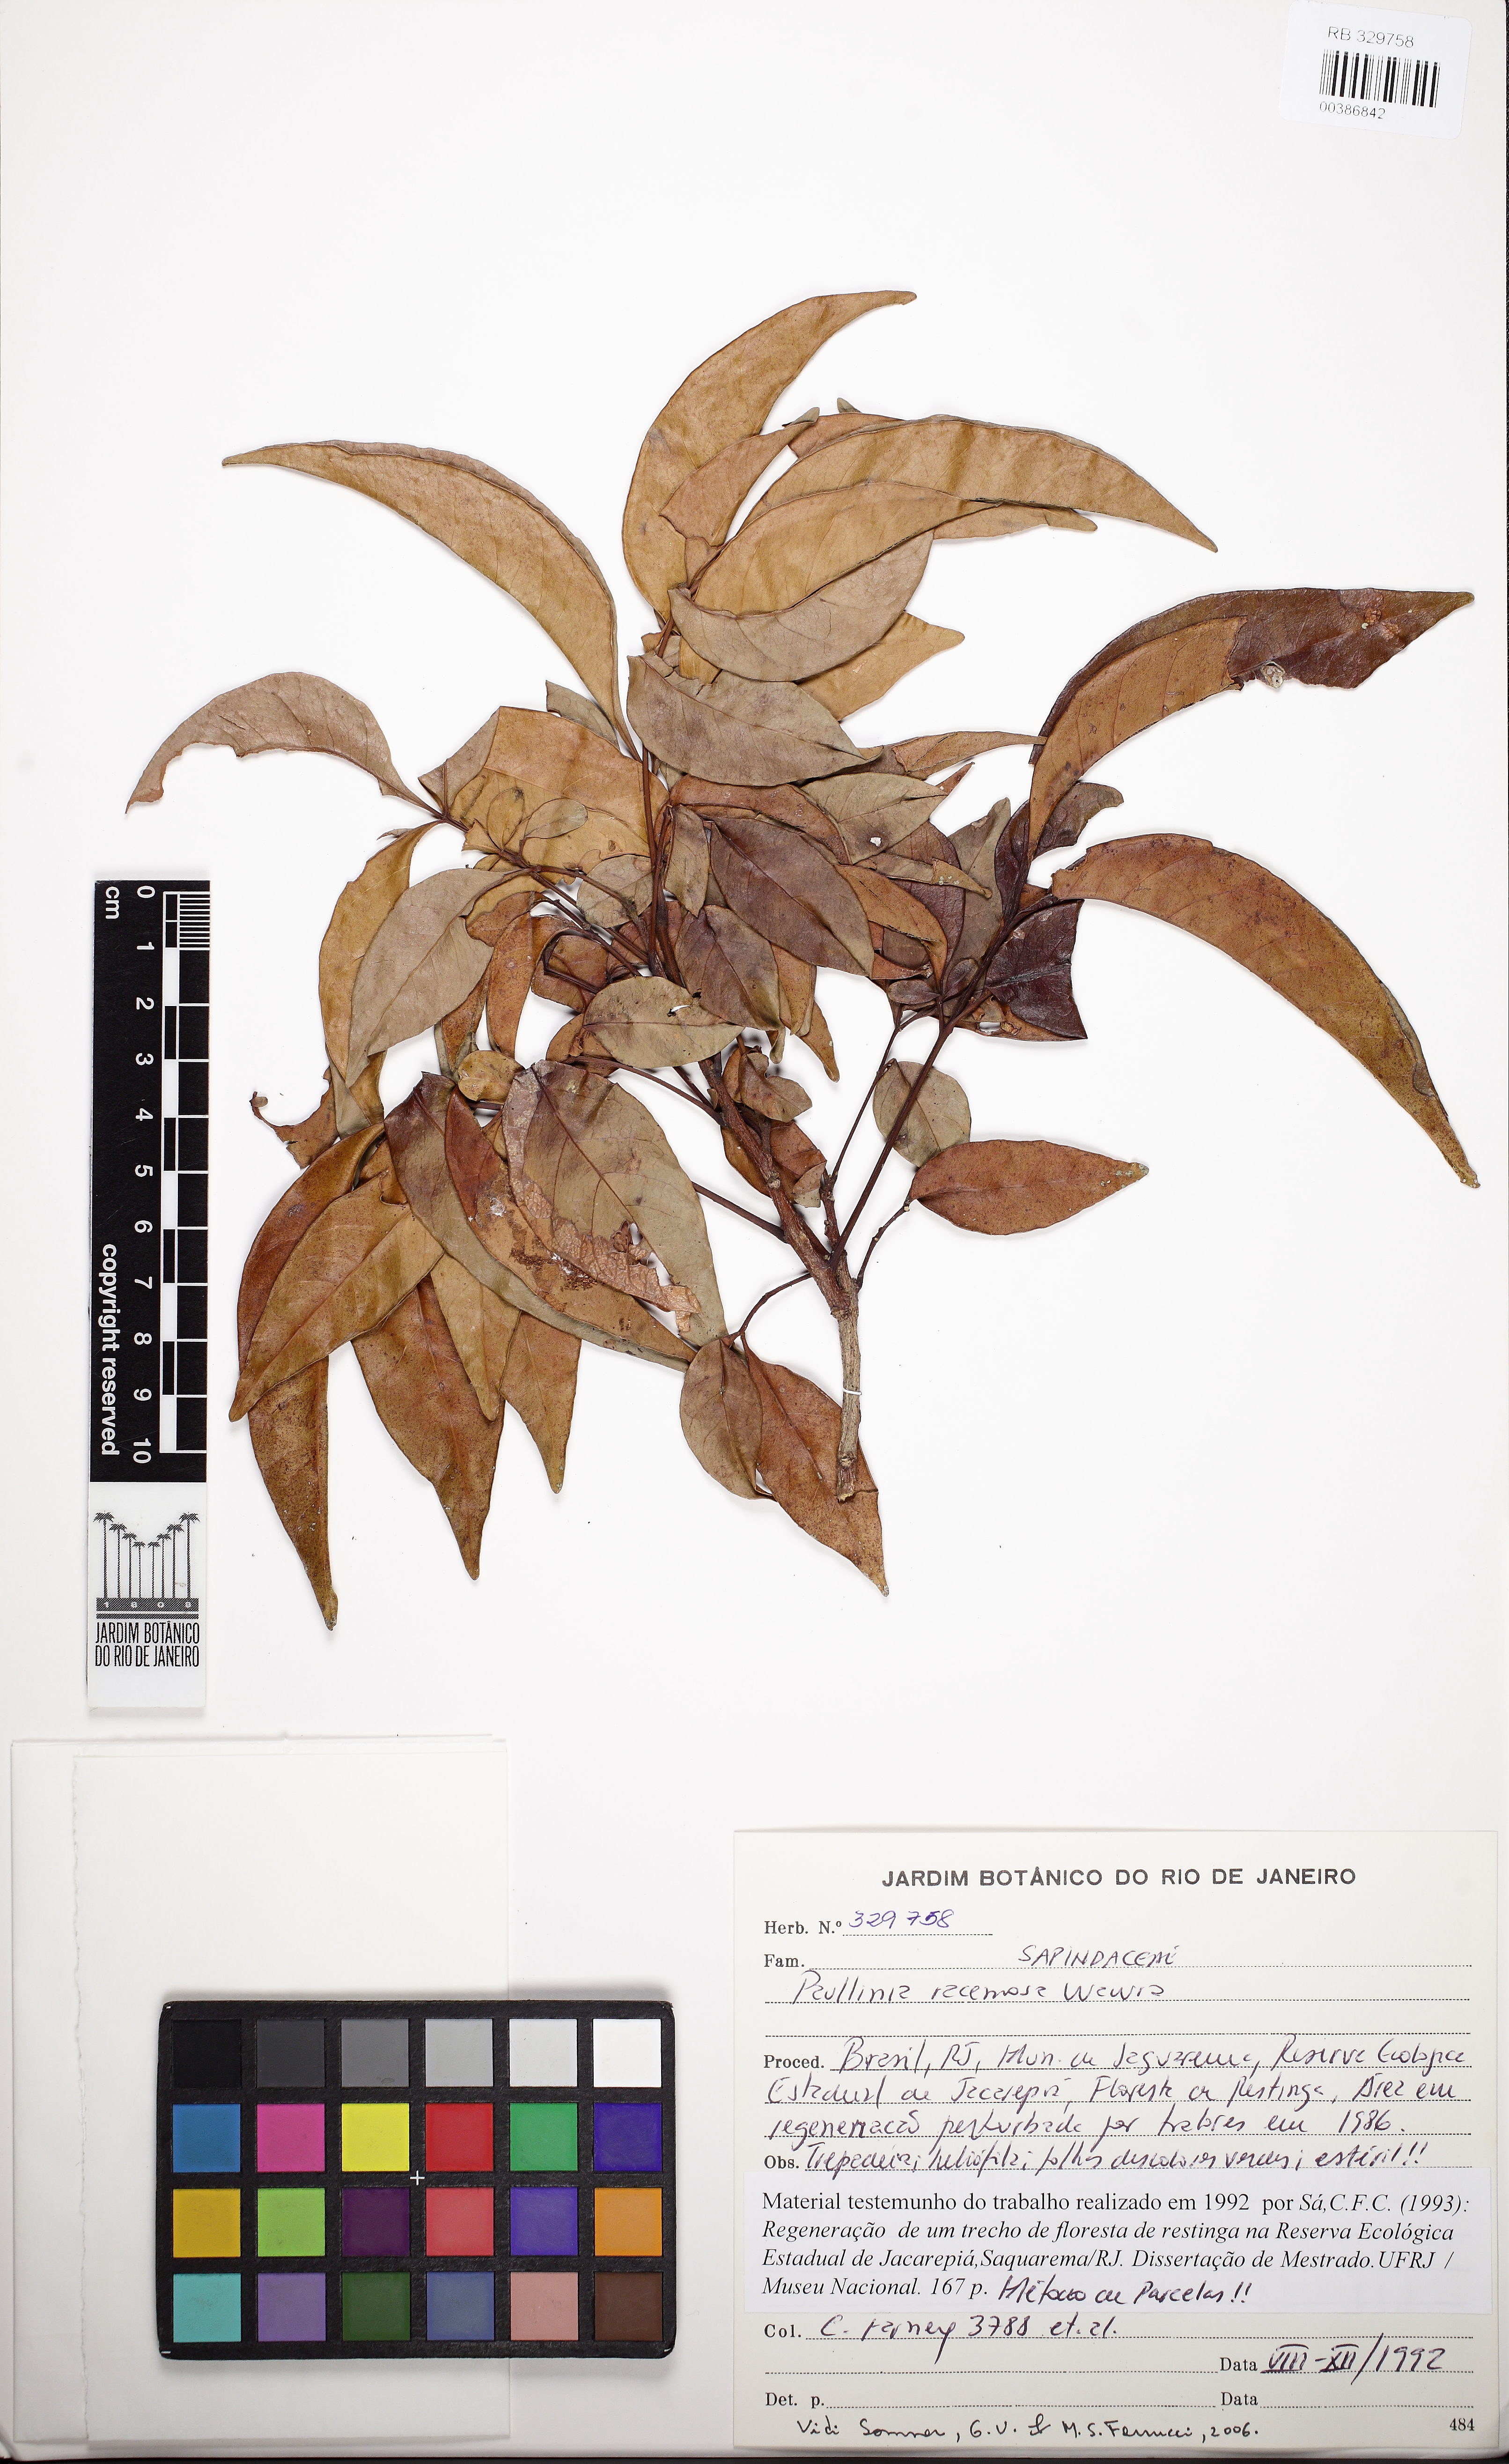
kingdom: Plantae
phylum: Tracheophyta
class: Magnoliopsida
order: Sapindales
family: Sapindaceae
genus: Paullinia
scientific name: Paullinia pseudota
